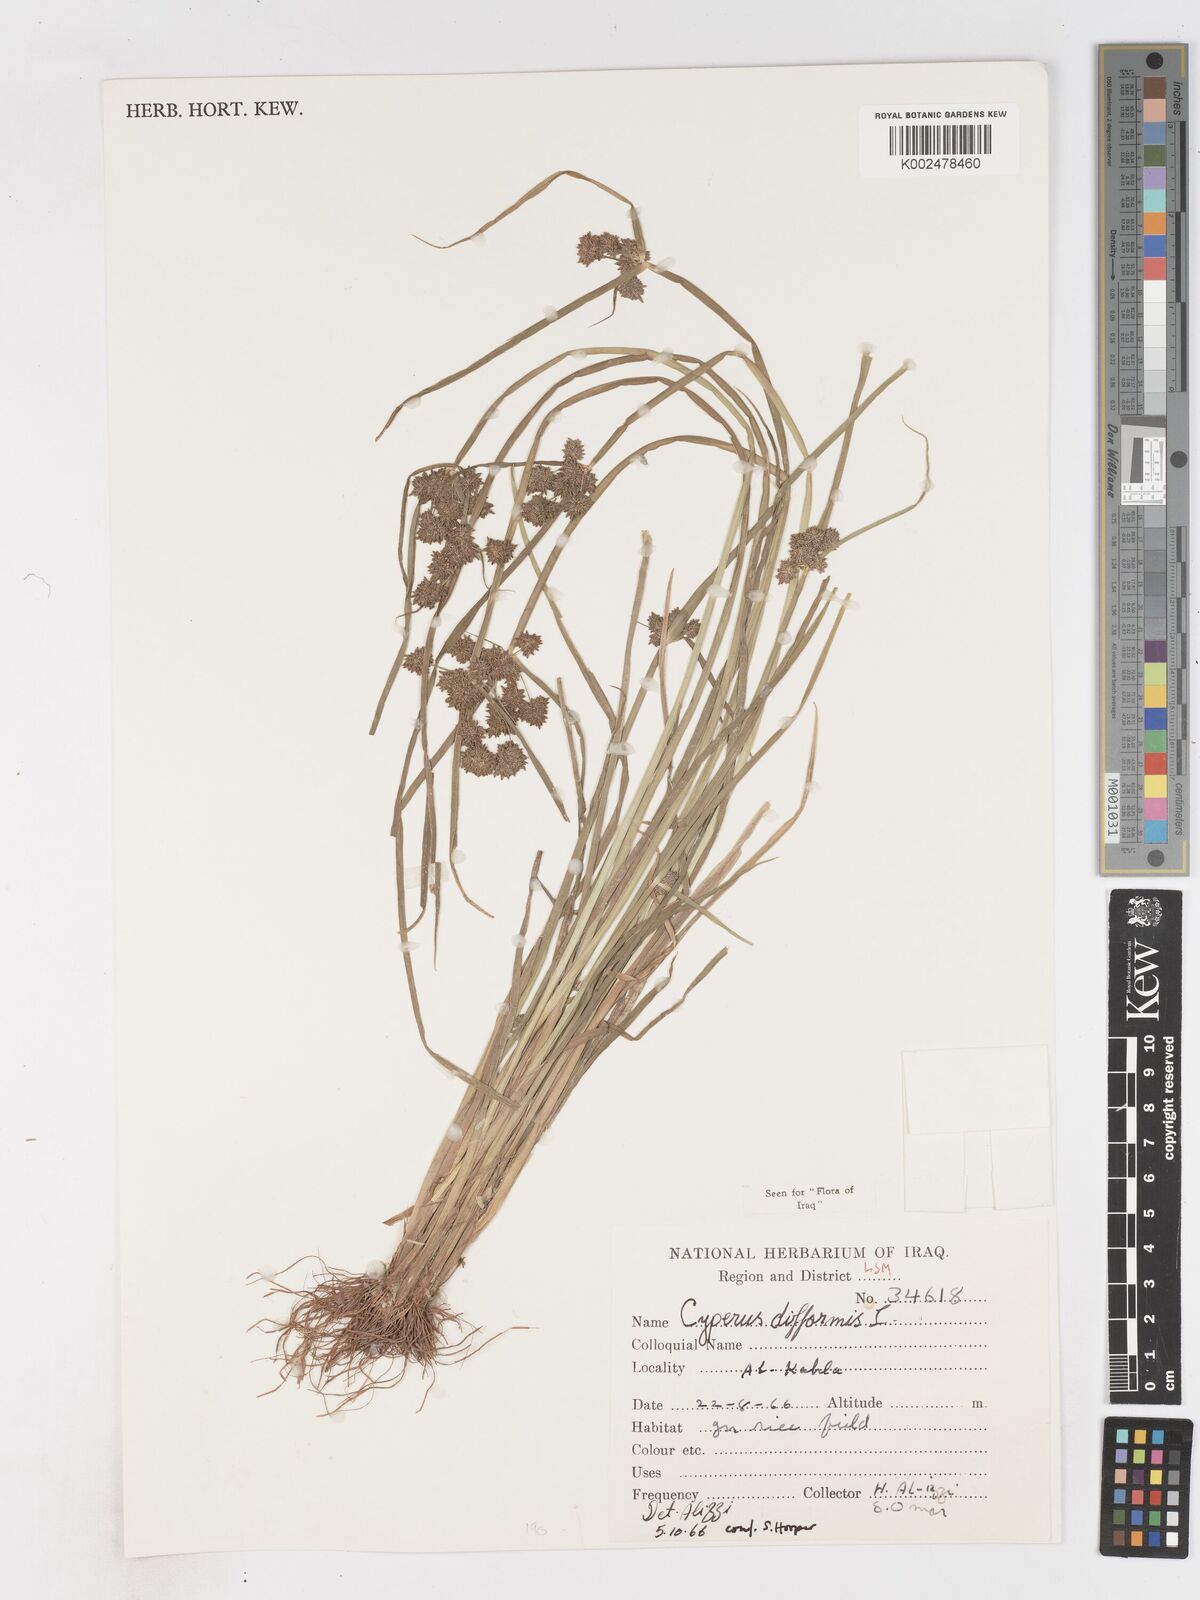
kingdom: Plantae
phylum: Tracheophyta
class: Liliopsida
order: Poales
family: Cyperaceae
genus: Cyperus
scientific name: Cyperus difformis
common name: Variable flatsedge
